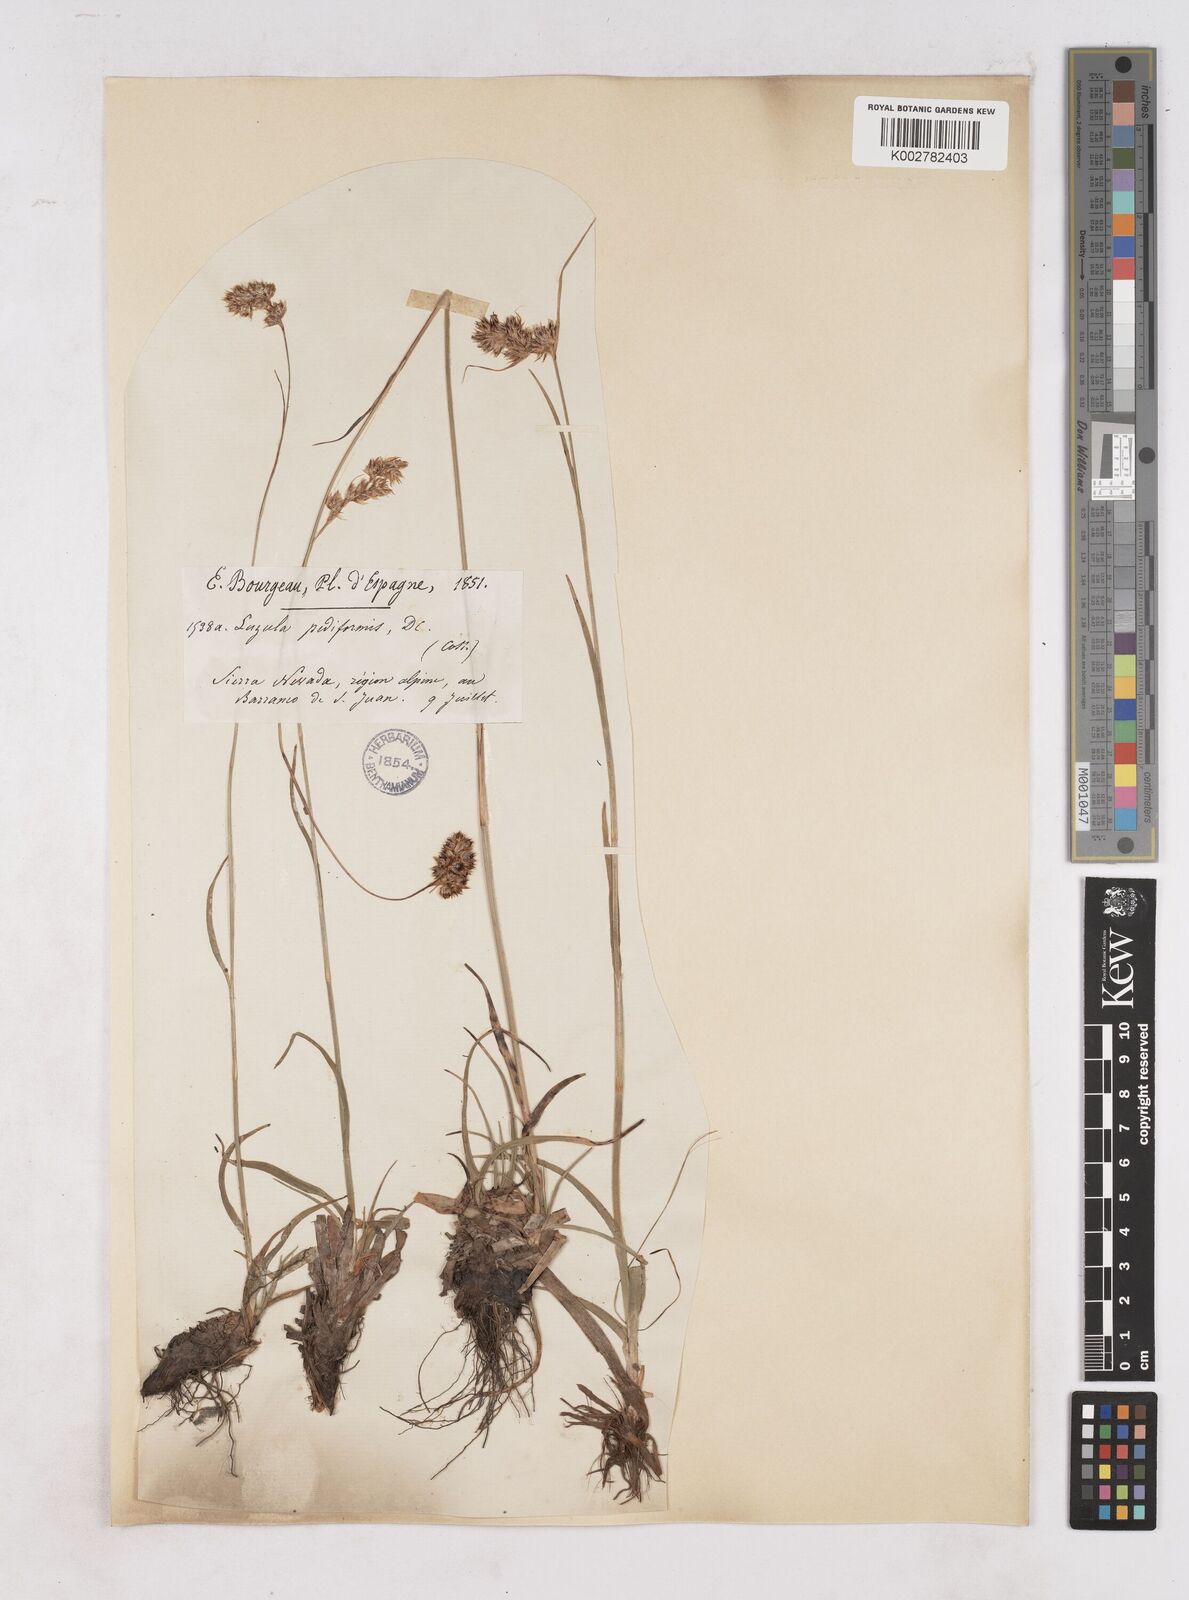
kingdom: Plantae
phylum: Tracheophyta
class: Liliopsida
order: Poales
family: Juncaceae
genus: Luzula
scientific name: Luzula pediformis
